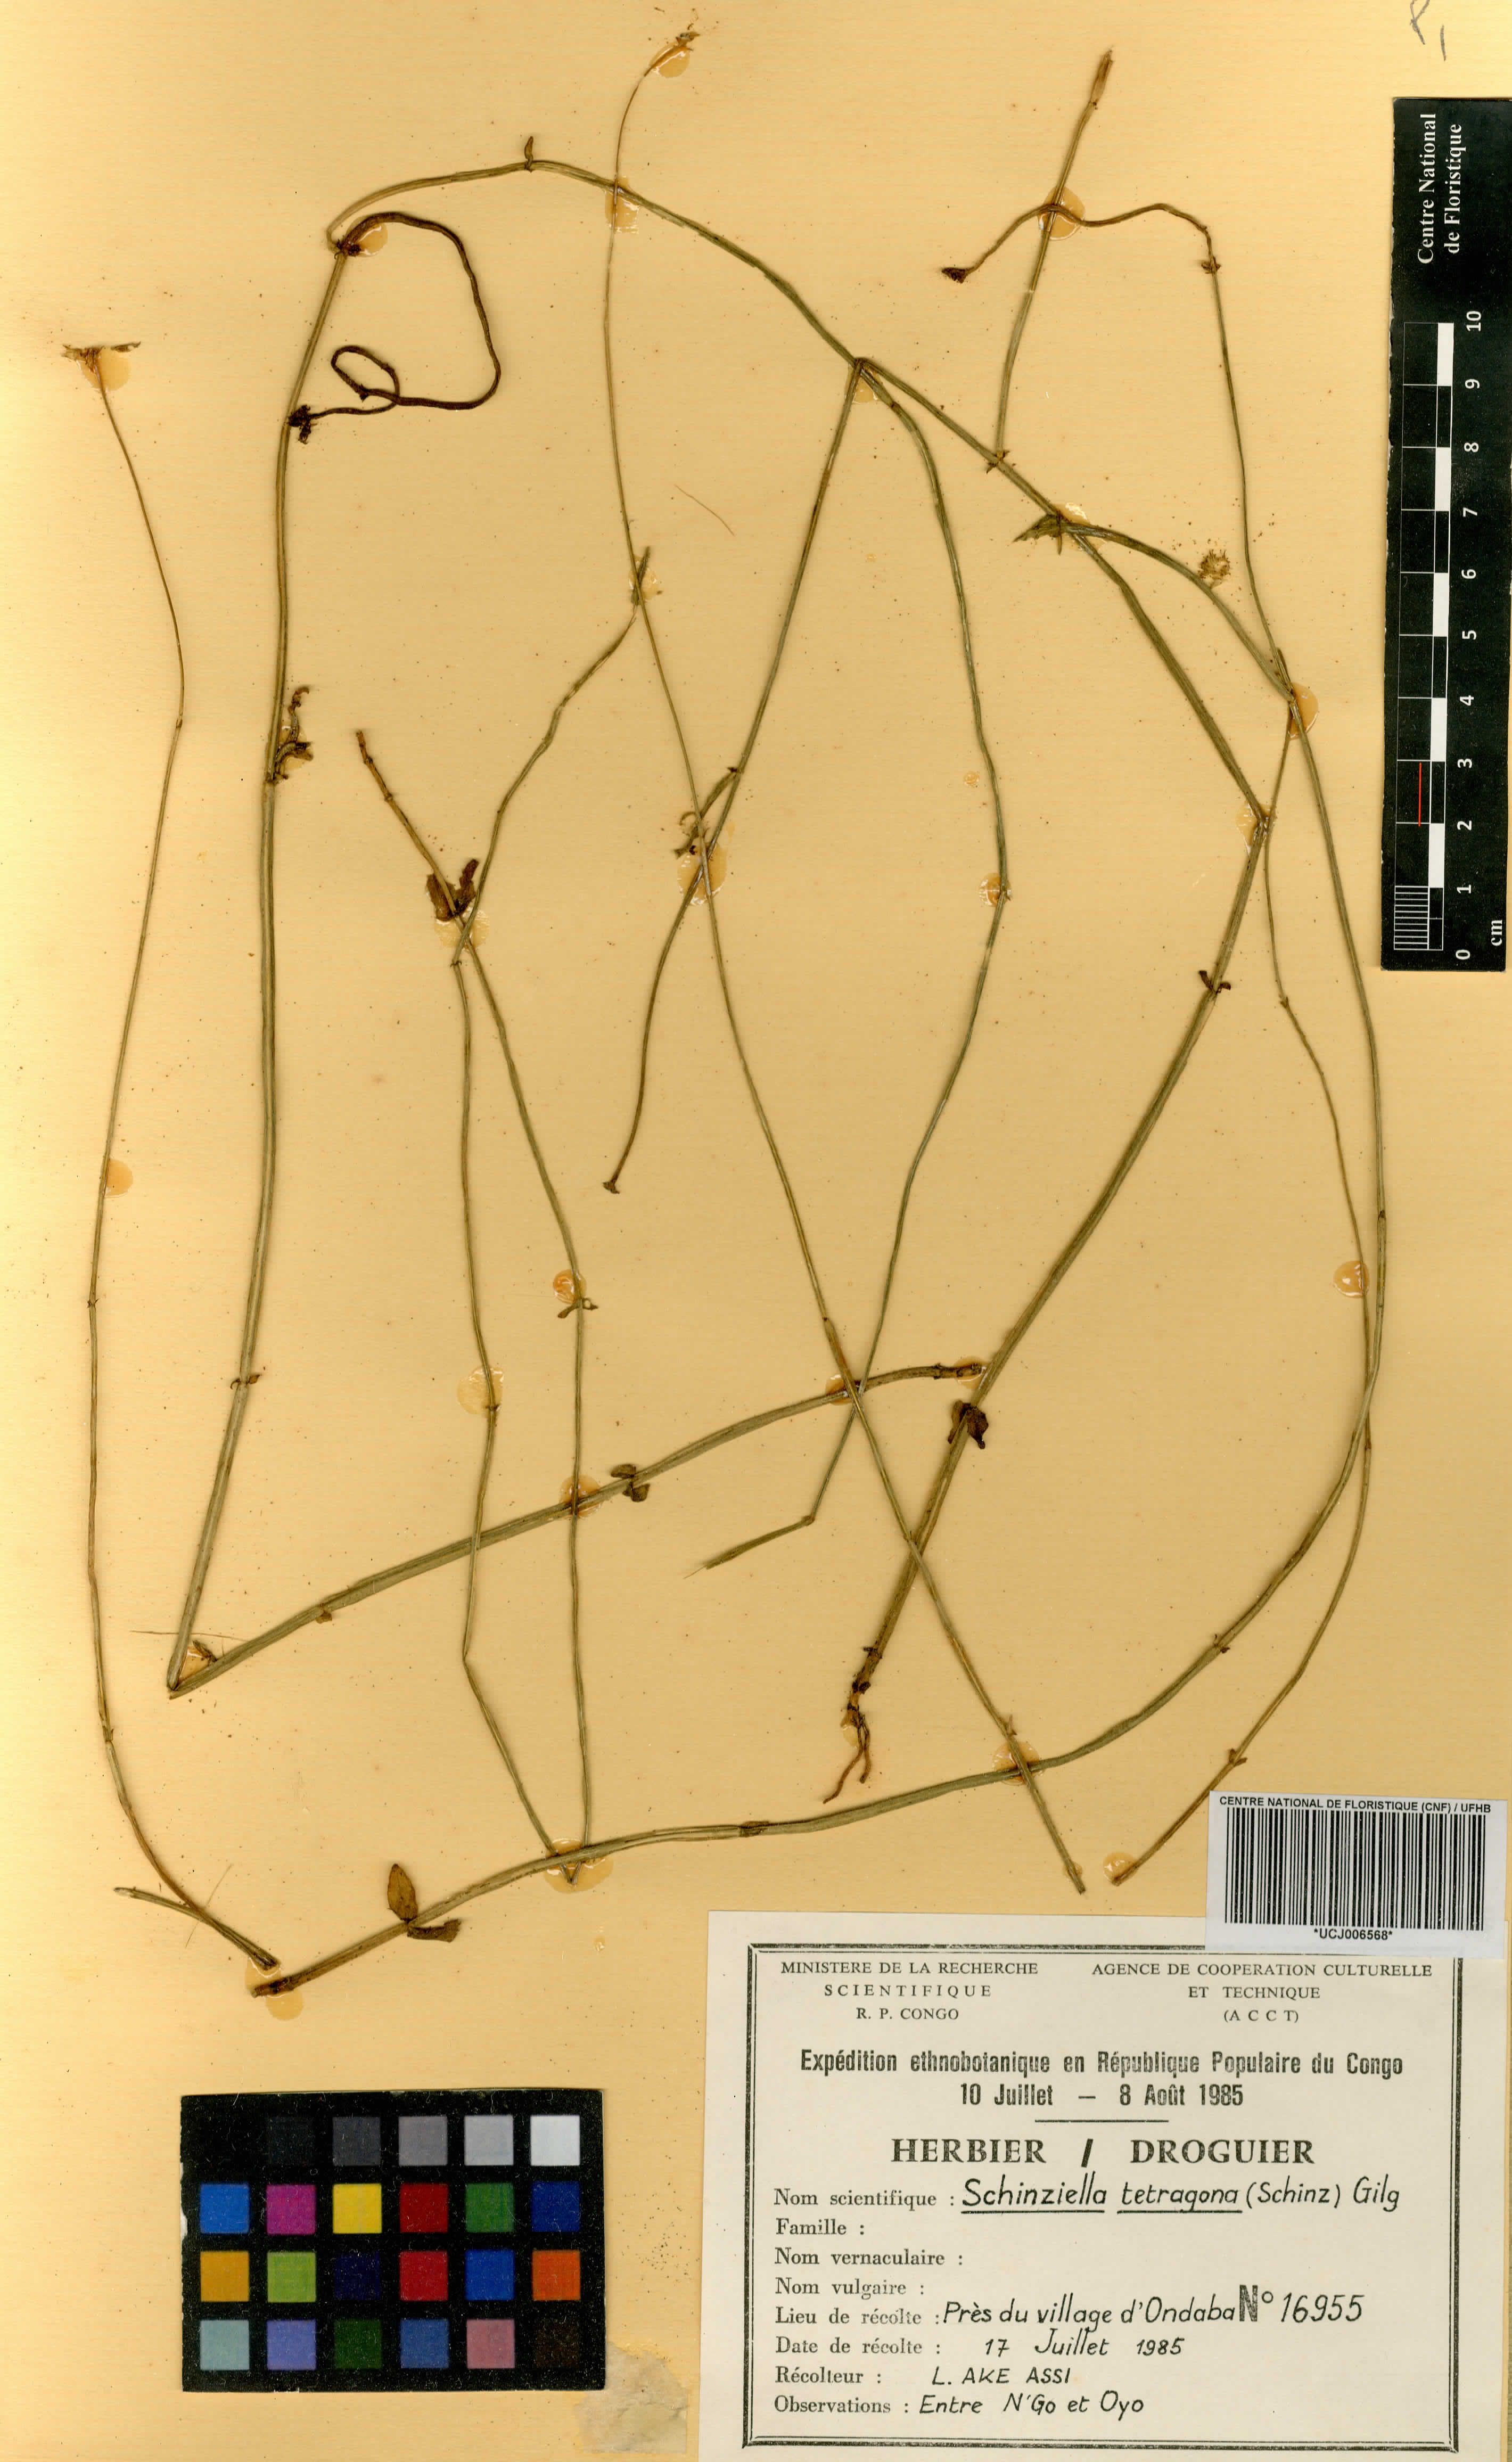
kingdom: Plantae
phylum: Tracheophyta
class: Magnoliopsida
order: Gentianales
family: Gentianaceae
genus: Schinziella
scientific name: Schinziella tetragona
